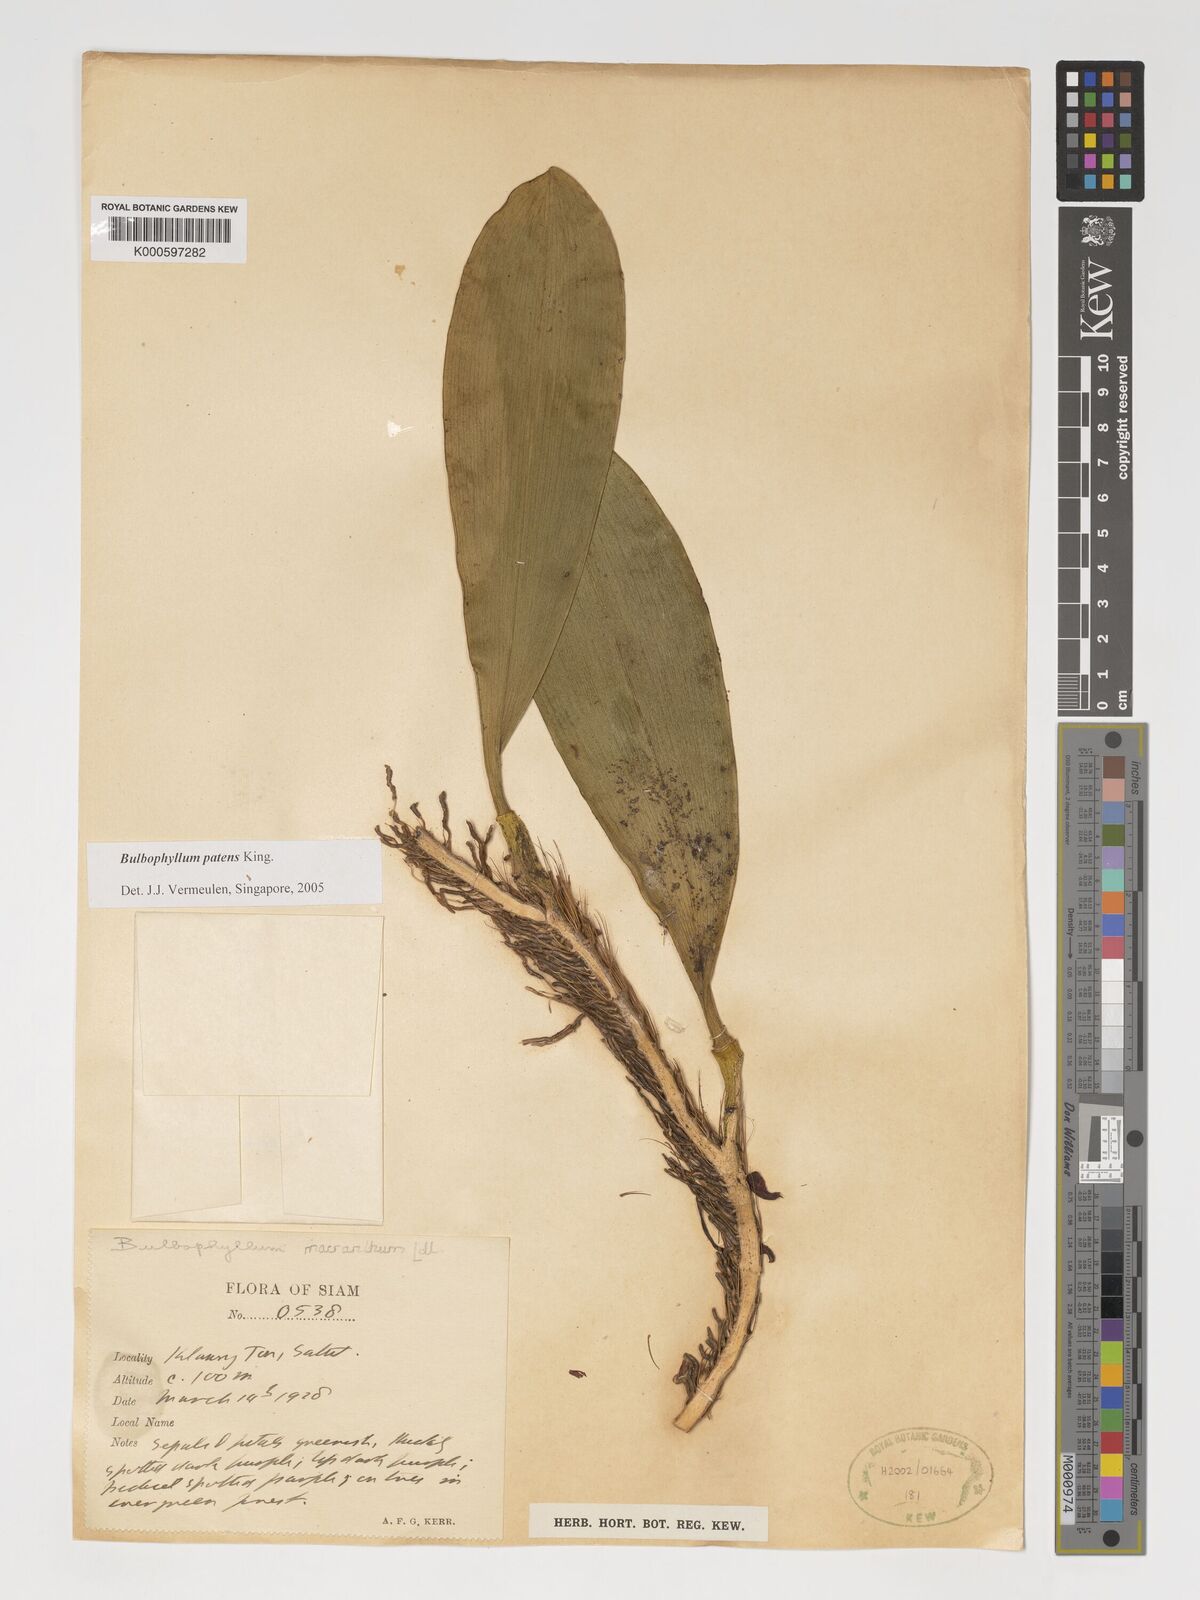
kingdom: Plantae
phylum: Tracheophyta
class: Liliopsida
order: Asparagales
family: Orchidaceae
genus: Bulbophyllum
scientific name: Bulbophyllum
